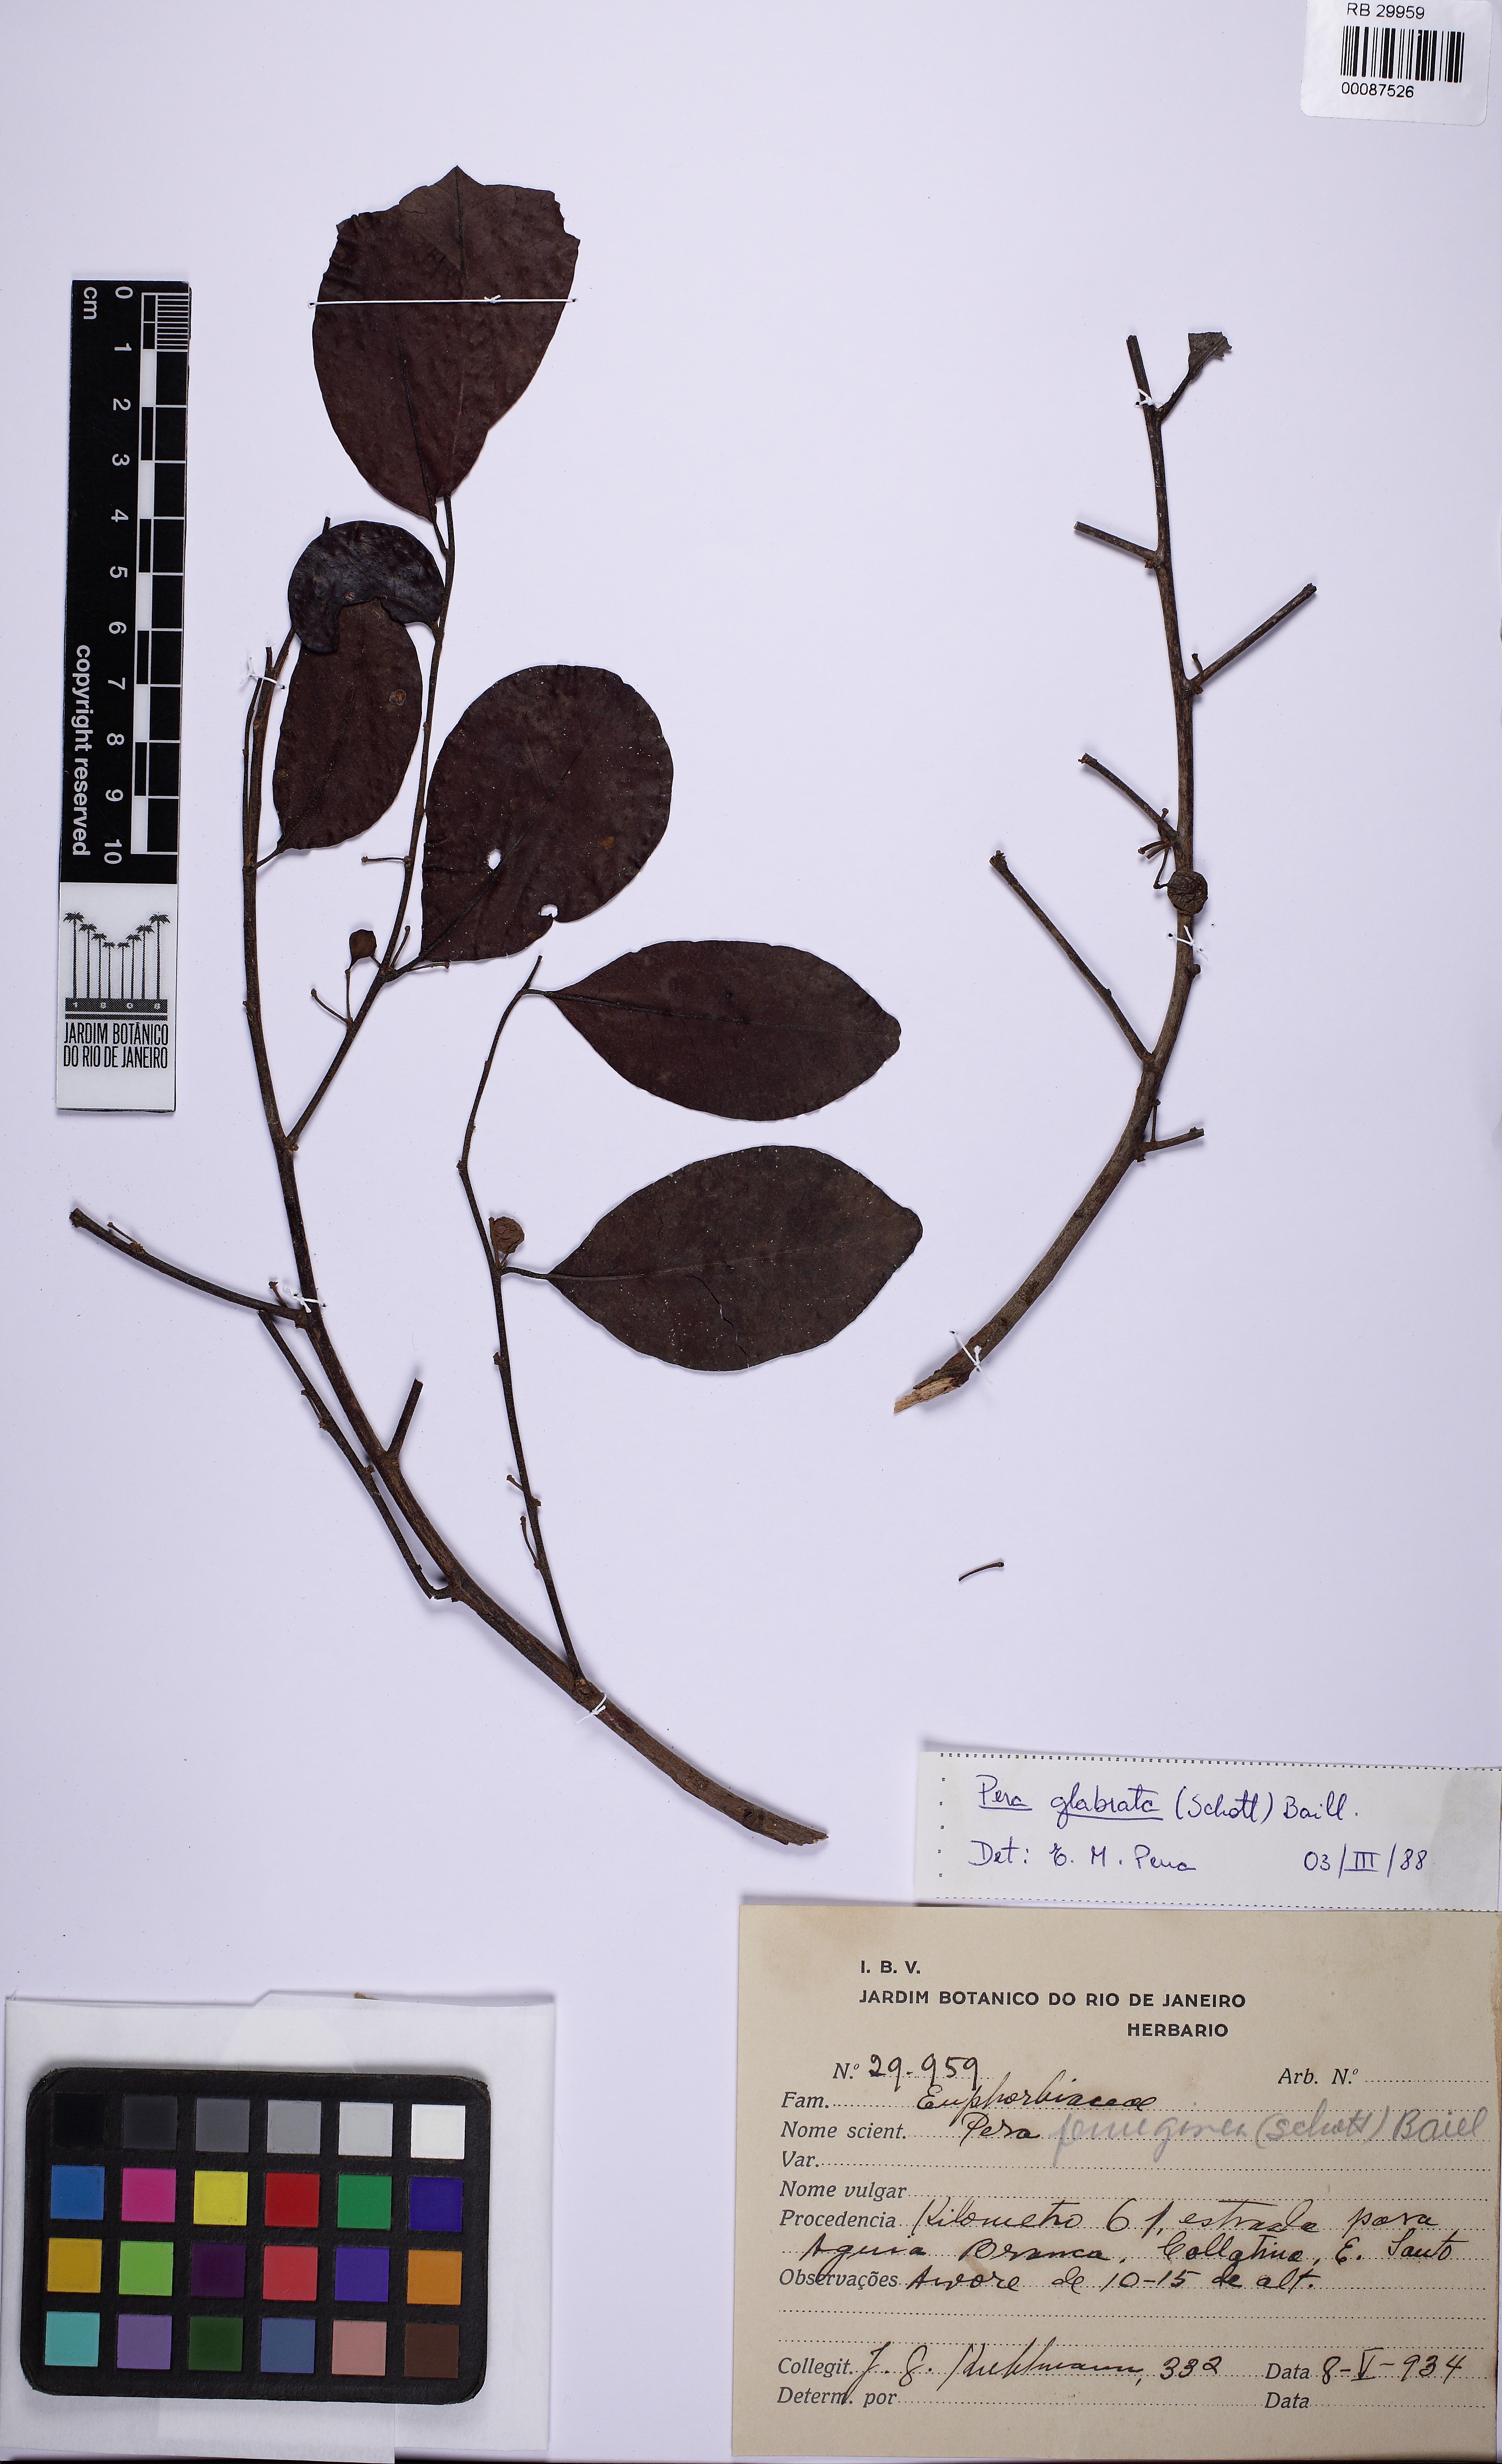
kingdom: Plantae
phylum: Tracheophyta
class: Magnoliopsida
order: Malpighiales
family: Peraceae
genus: Pera
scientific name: Pera glabrata
